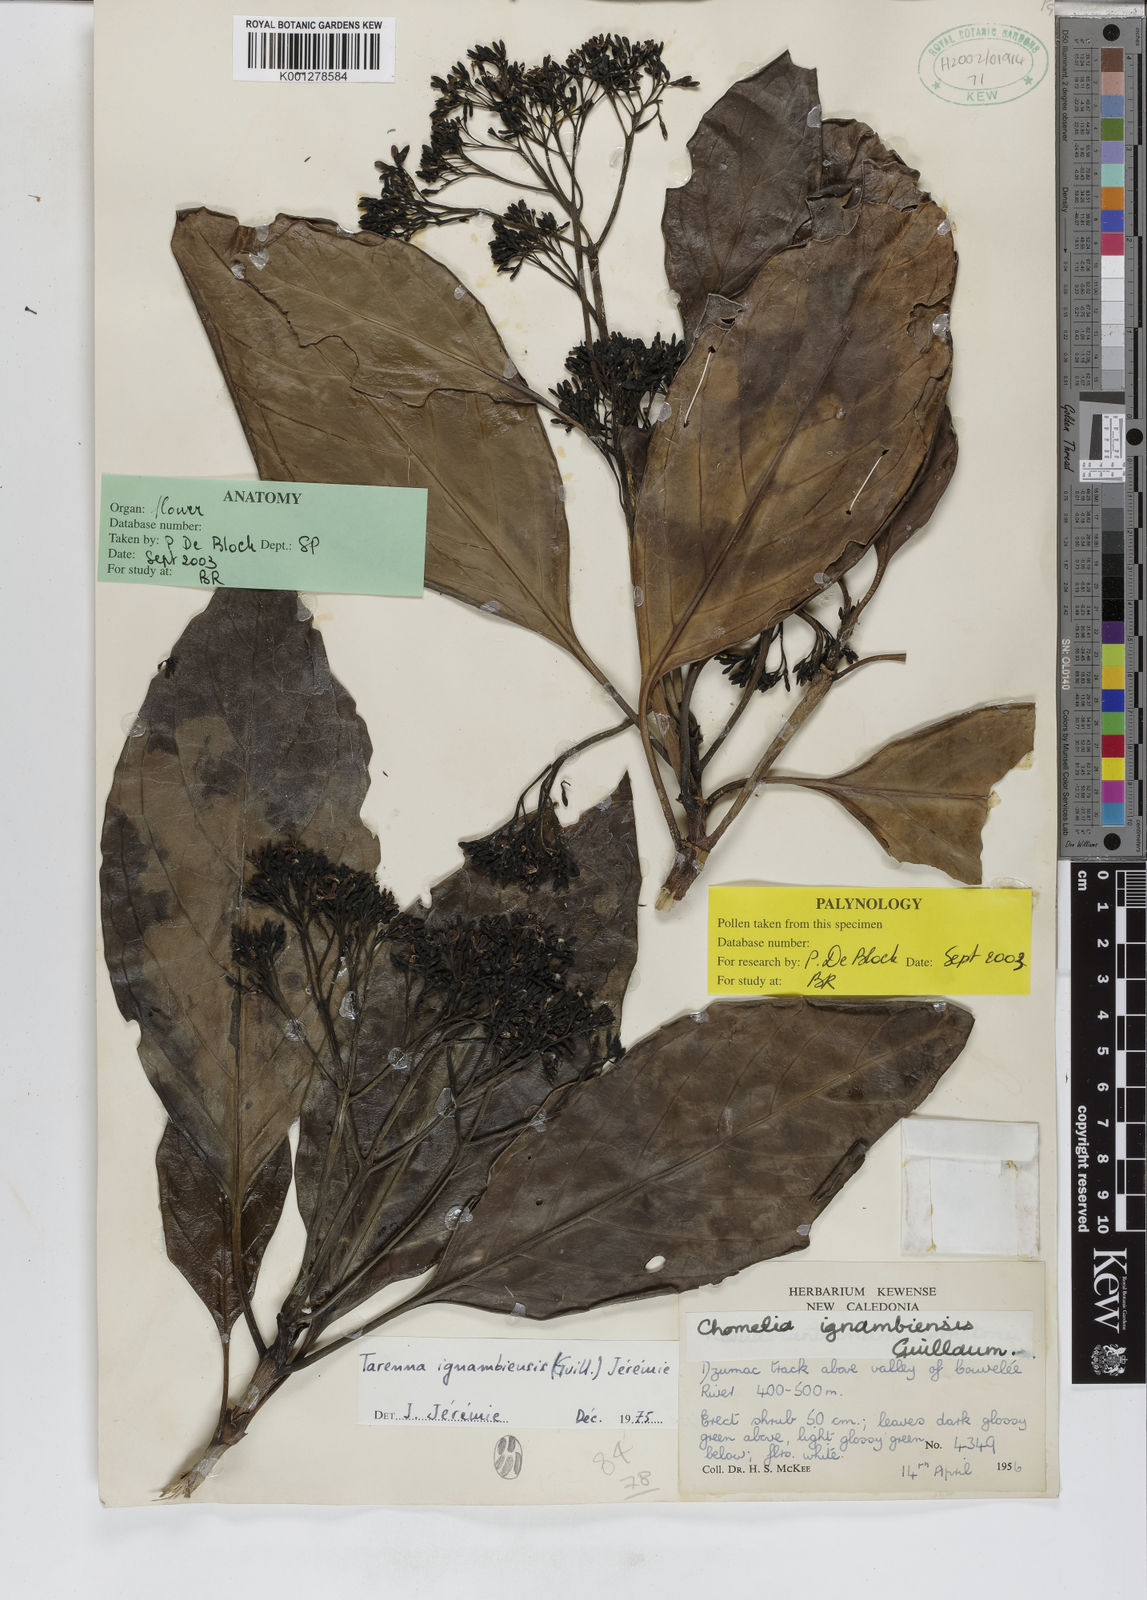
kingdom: Plantae
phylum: Tracheophyta
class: Magnoliopsida
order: Gentianales
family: Rubiaceae
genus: Tarenna
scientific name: Tarenna
